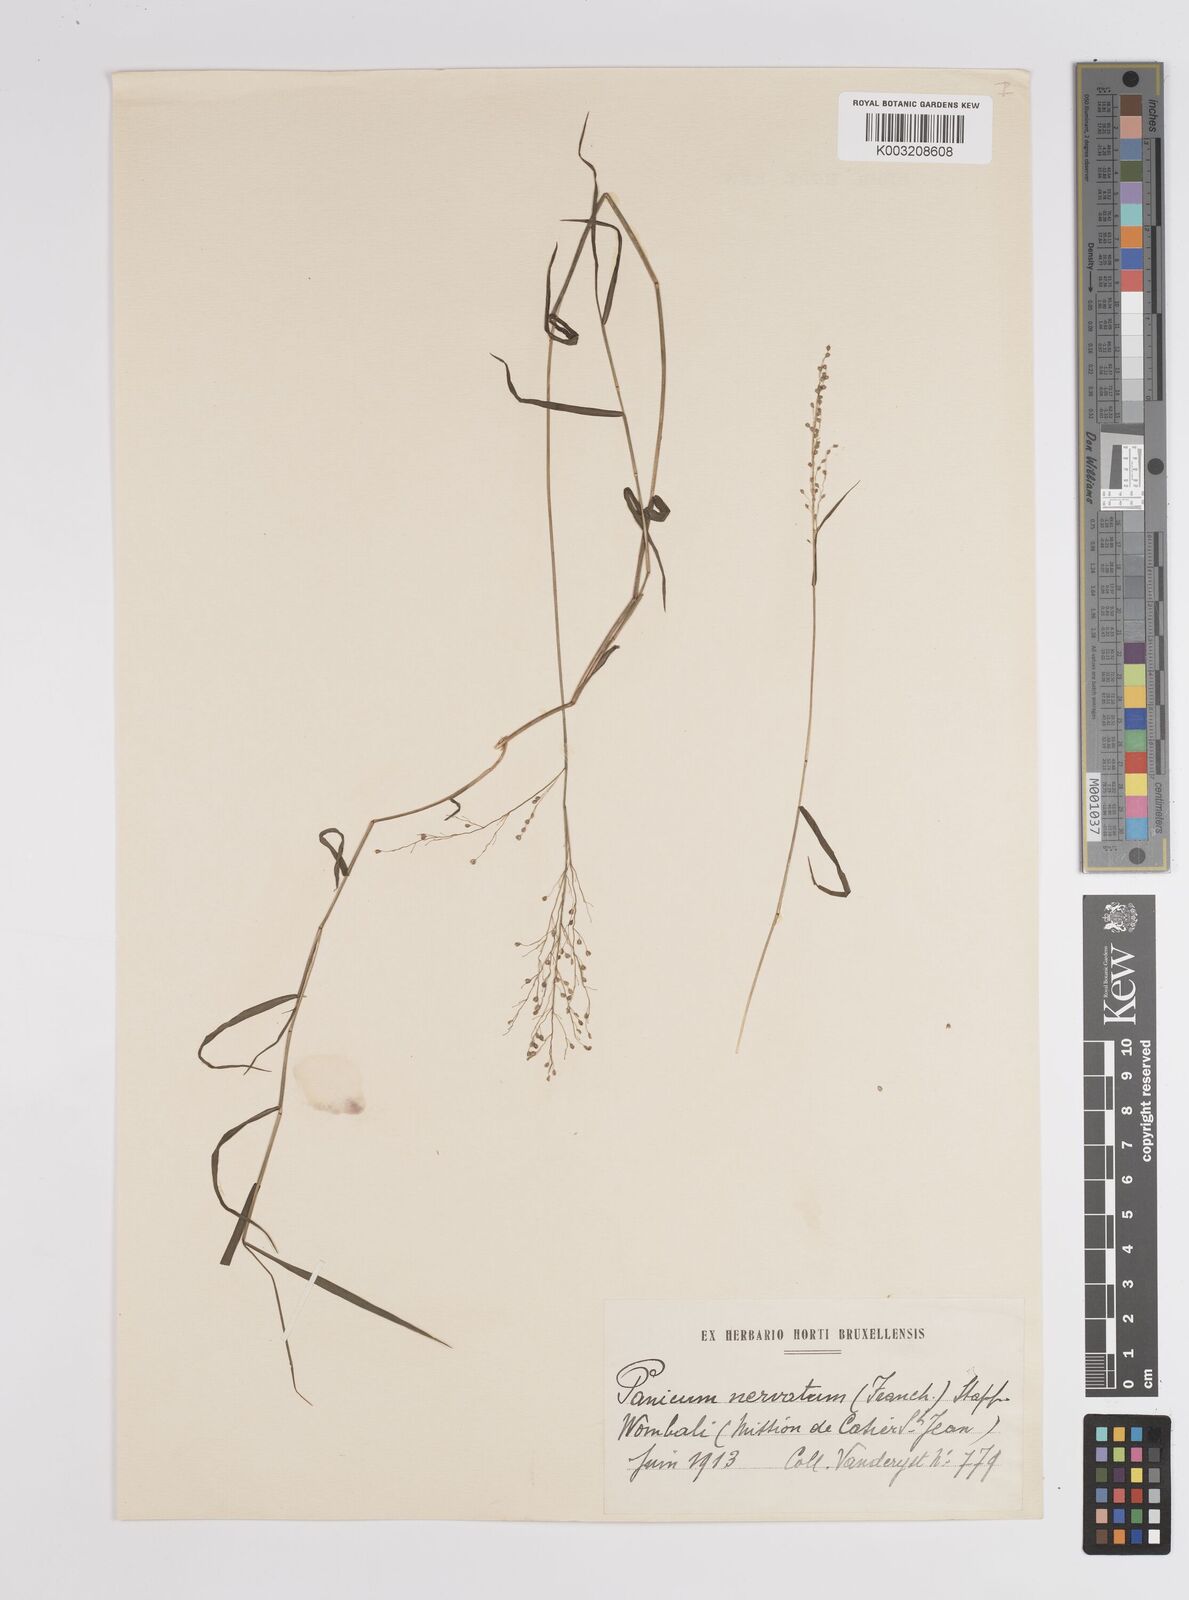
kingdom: Plantae
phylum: Tracheophyta
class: Liliopsida
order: Poales
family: Poaceae
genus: Trichanthecium
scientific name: Trichanthecium nervatum
